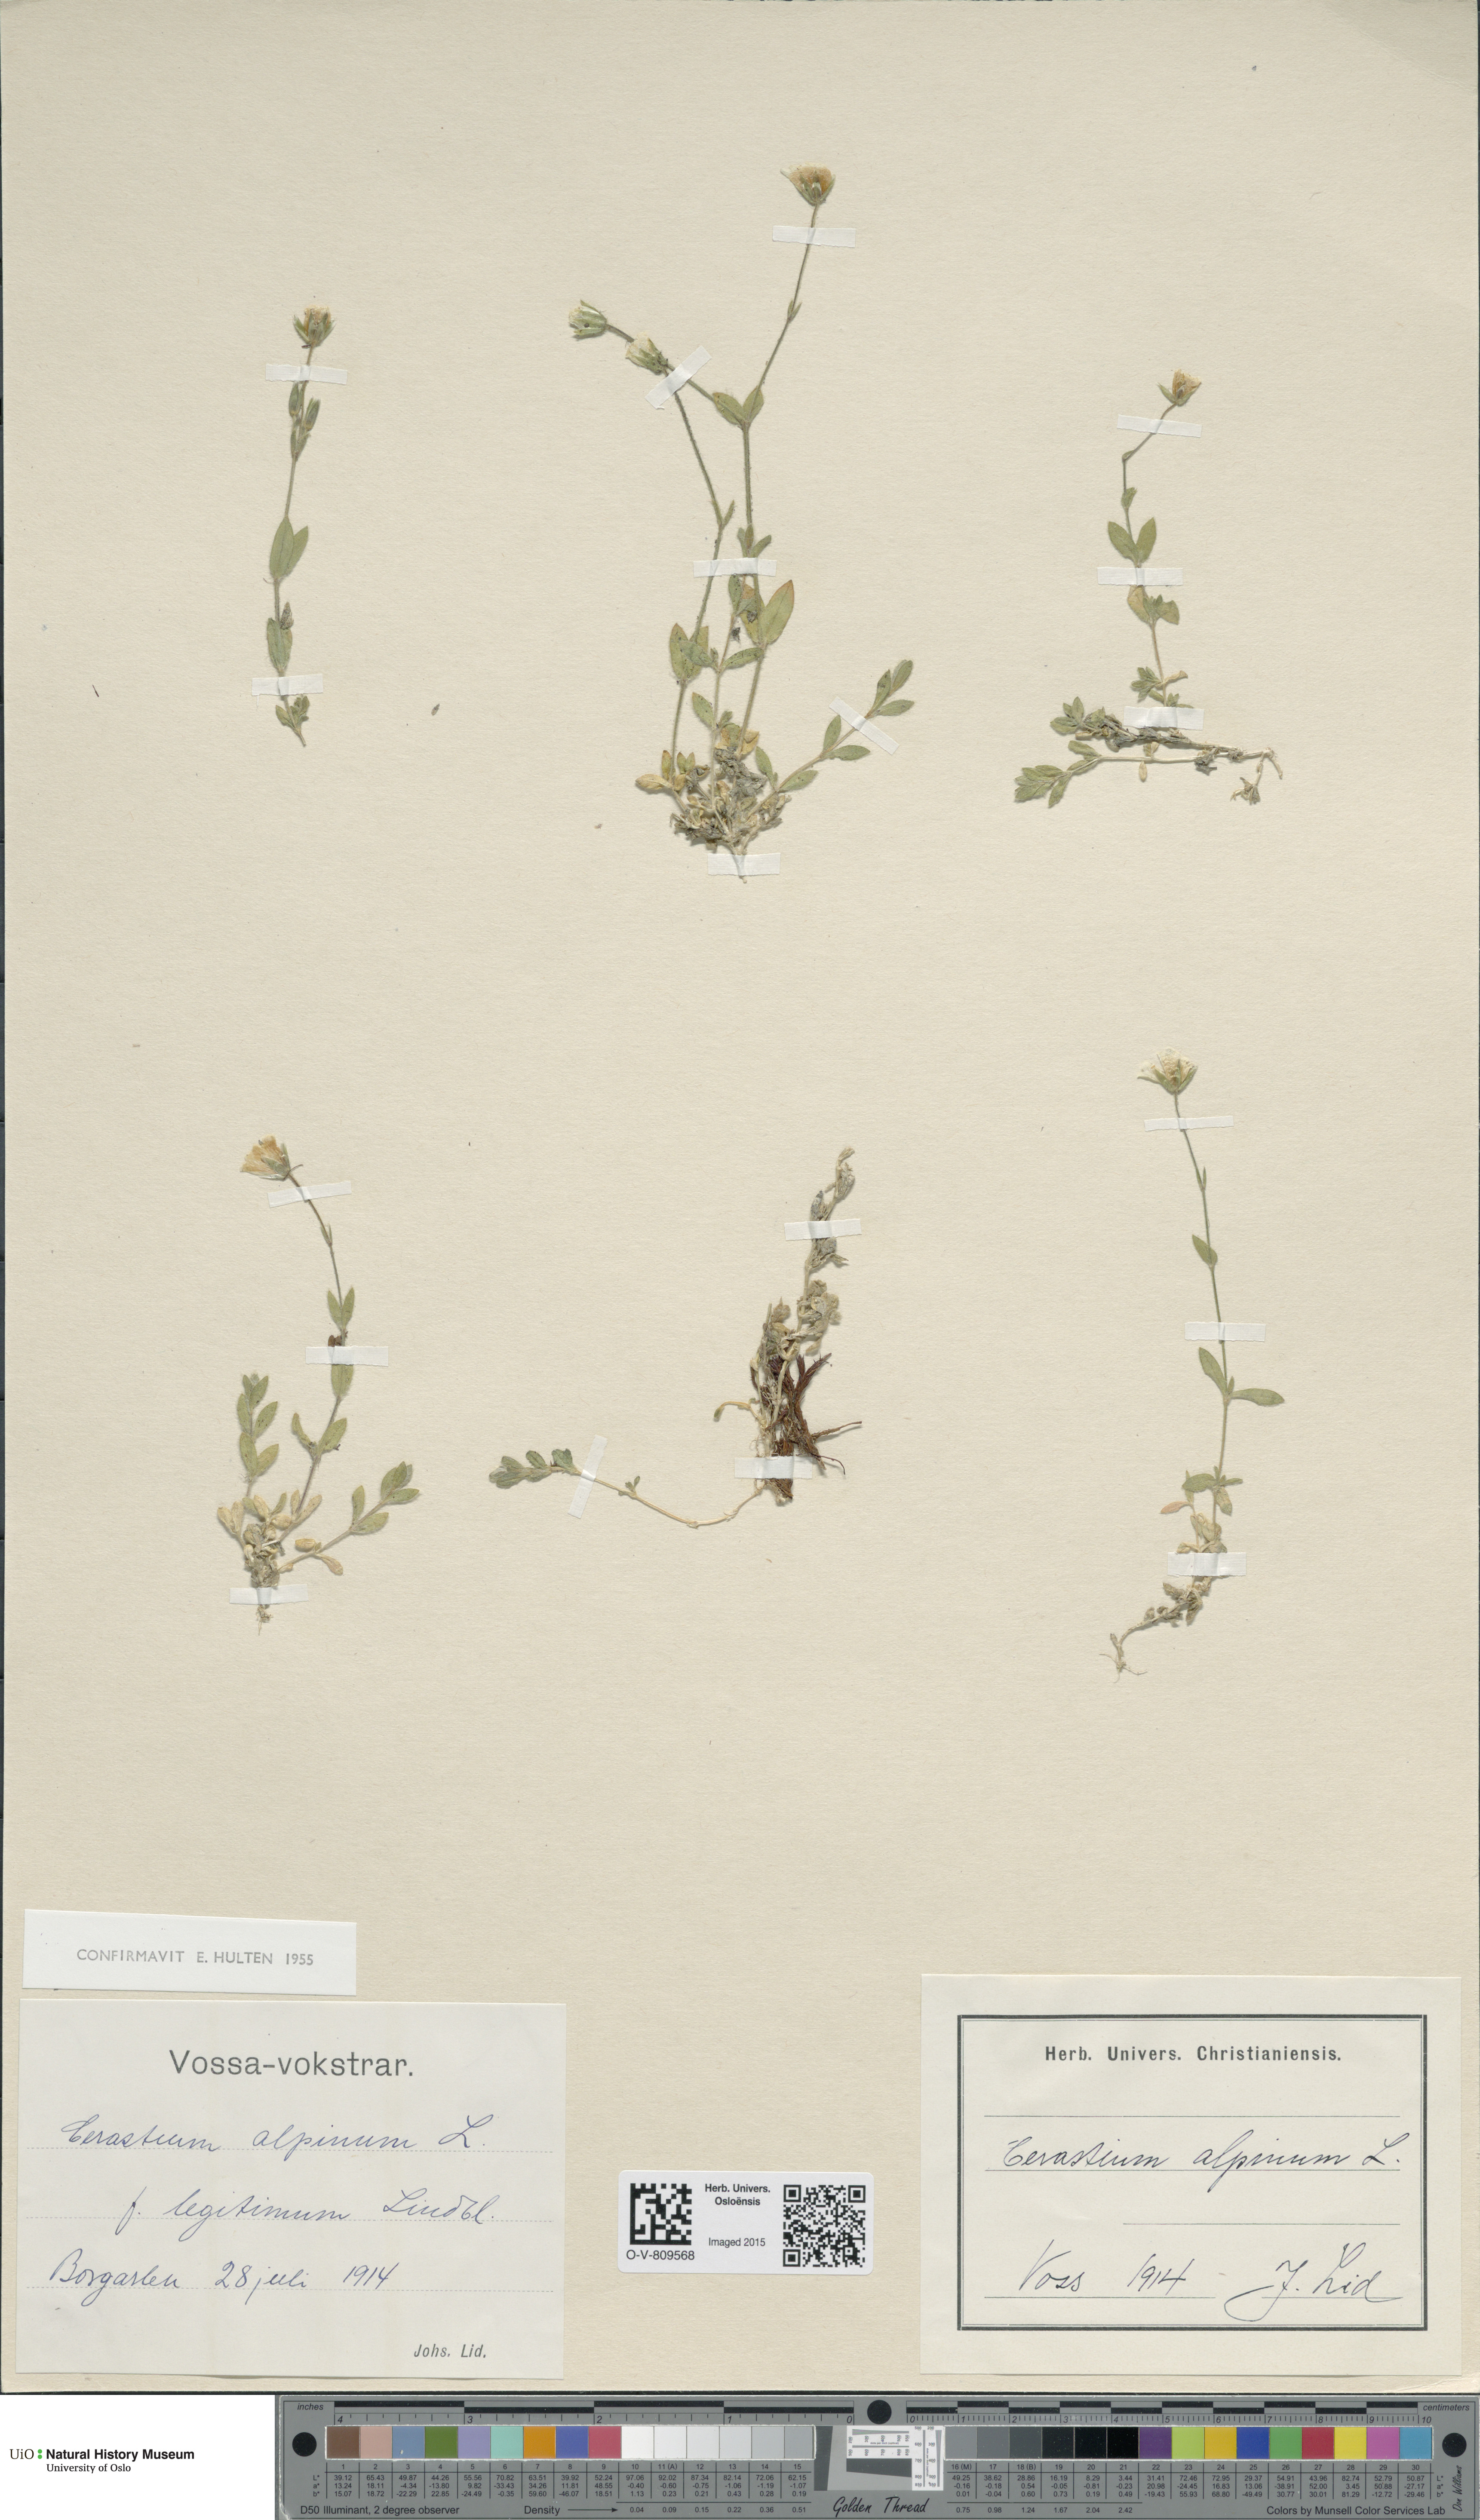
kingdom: Plantae
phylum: Tracheophyta
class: Magnoliopsida
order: Caryophyllales
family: Caryophyllaceae
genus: Cerastium
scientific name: Cerastium alpinum
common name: Alpine mouse-ear
